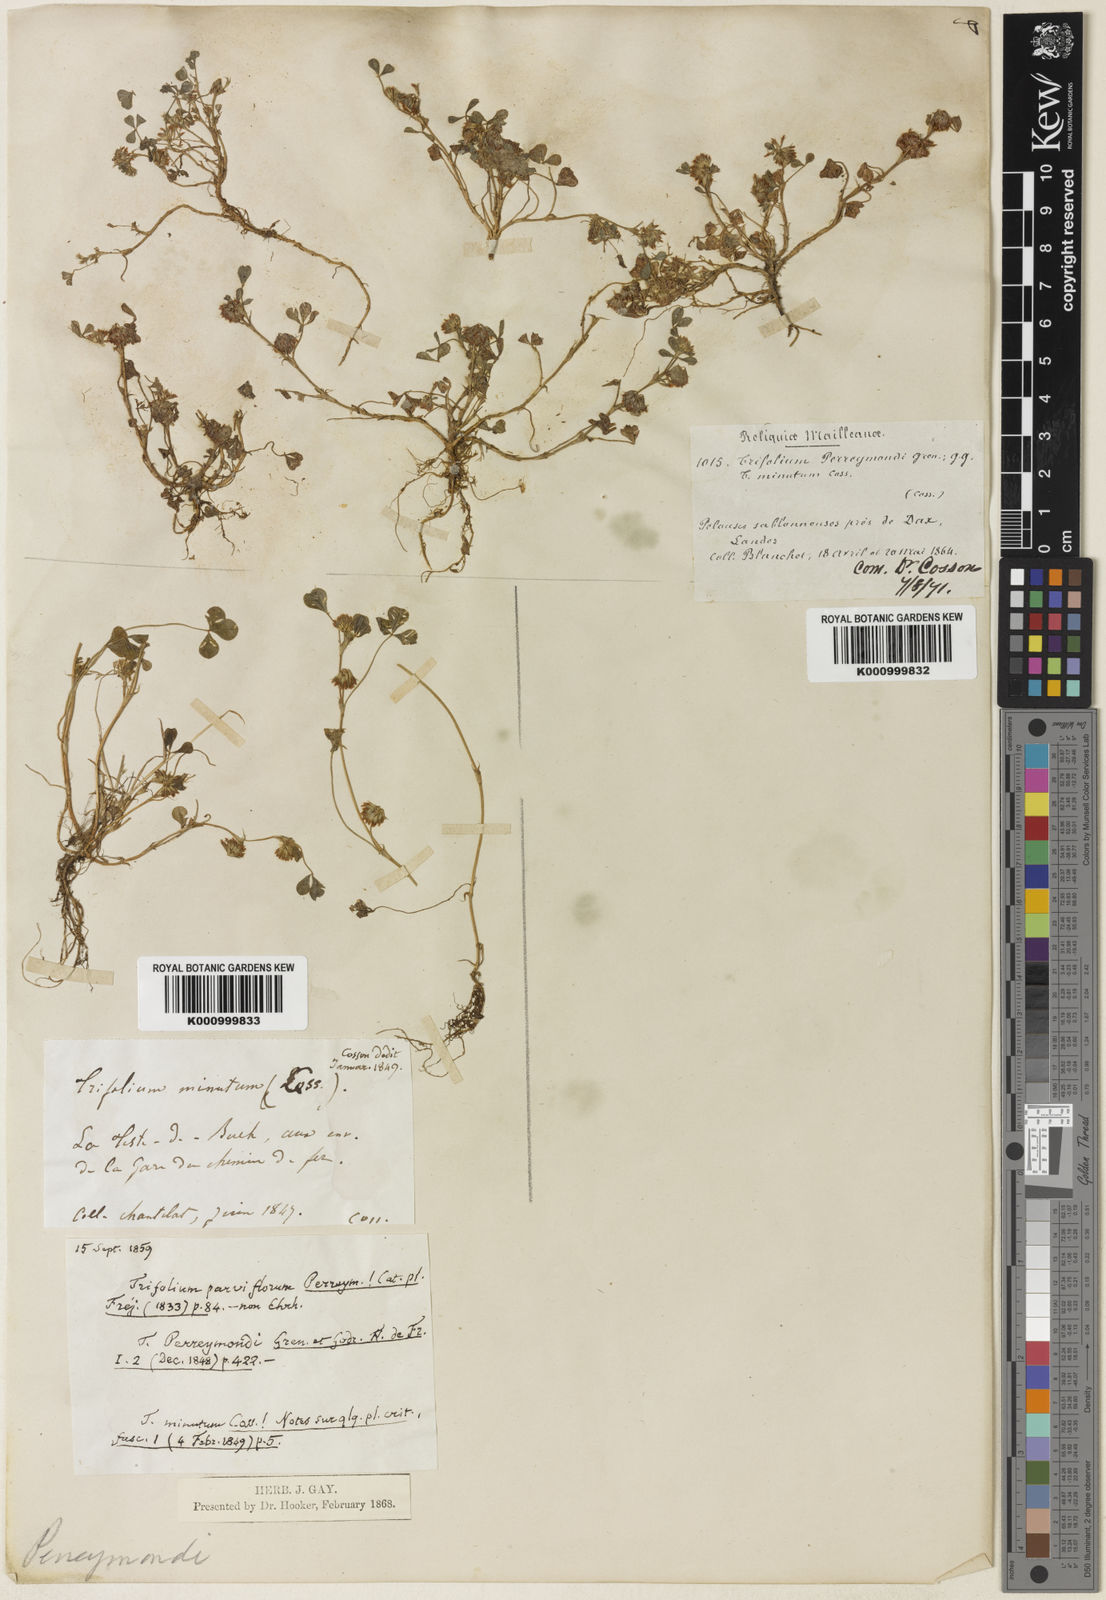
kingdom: Plantae
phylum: Tracheophyta
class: Magnoliopsida
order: Fabales
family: Fabaceae
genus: Trifolium
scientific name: Trifolium cernuum
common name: Nodding clover
